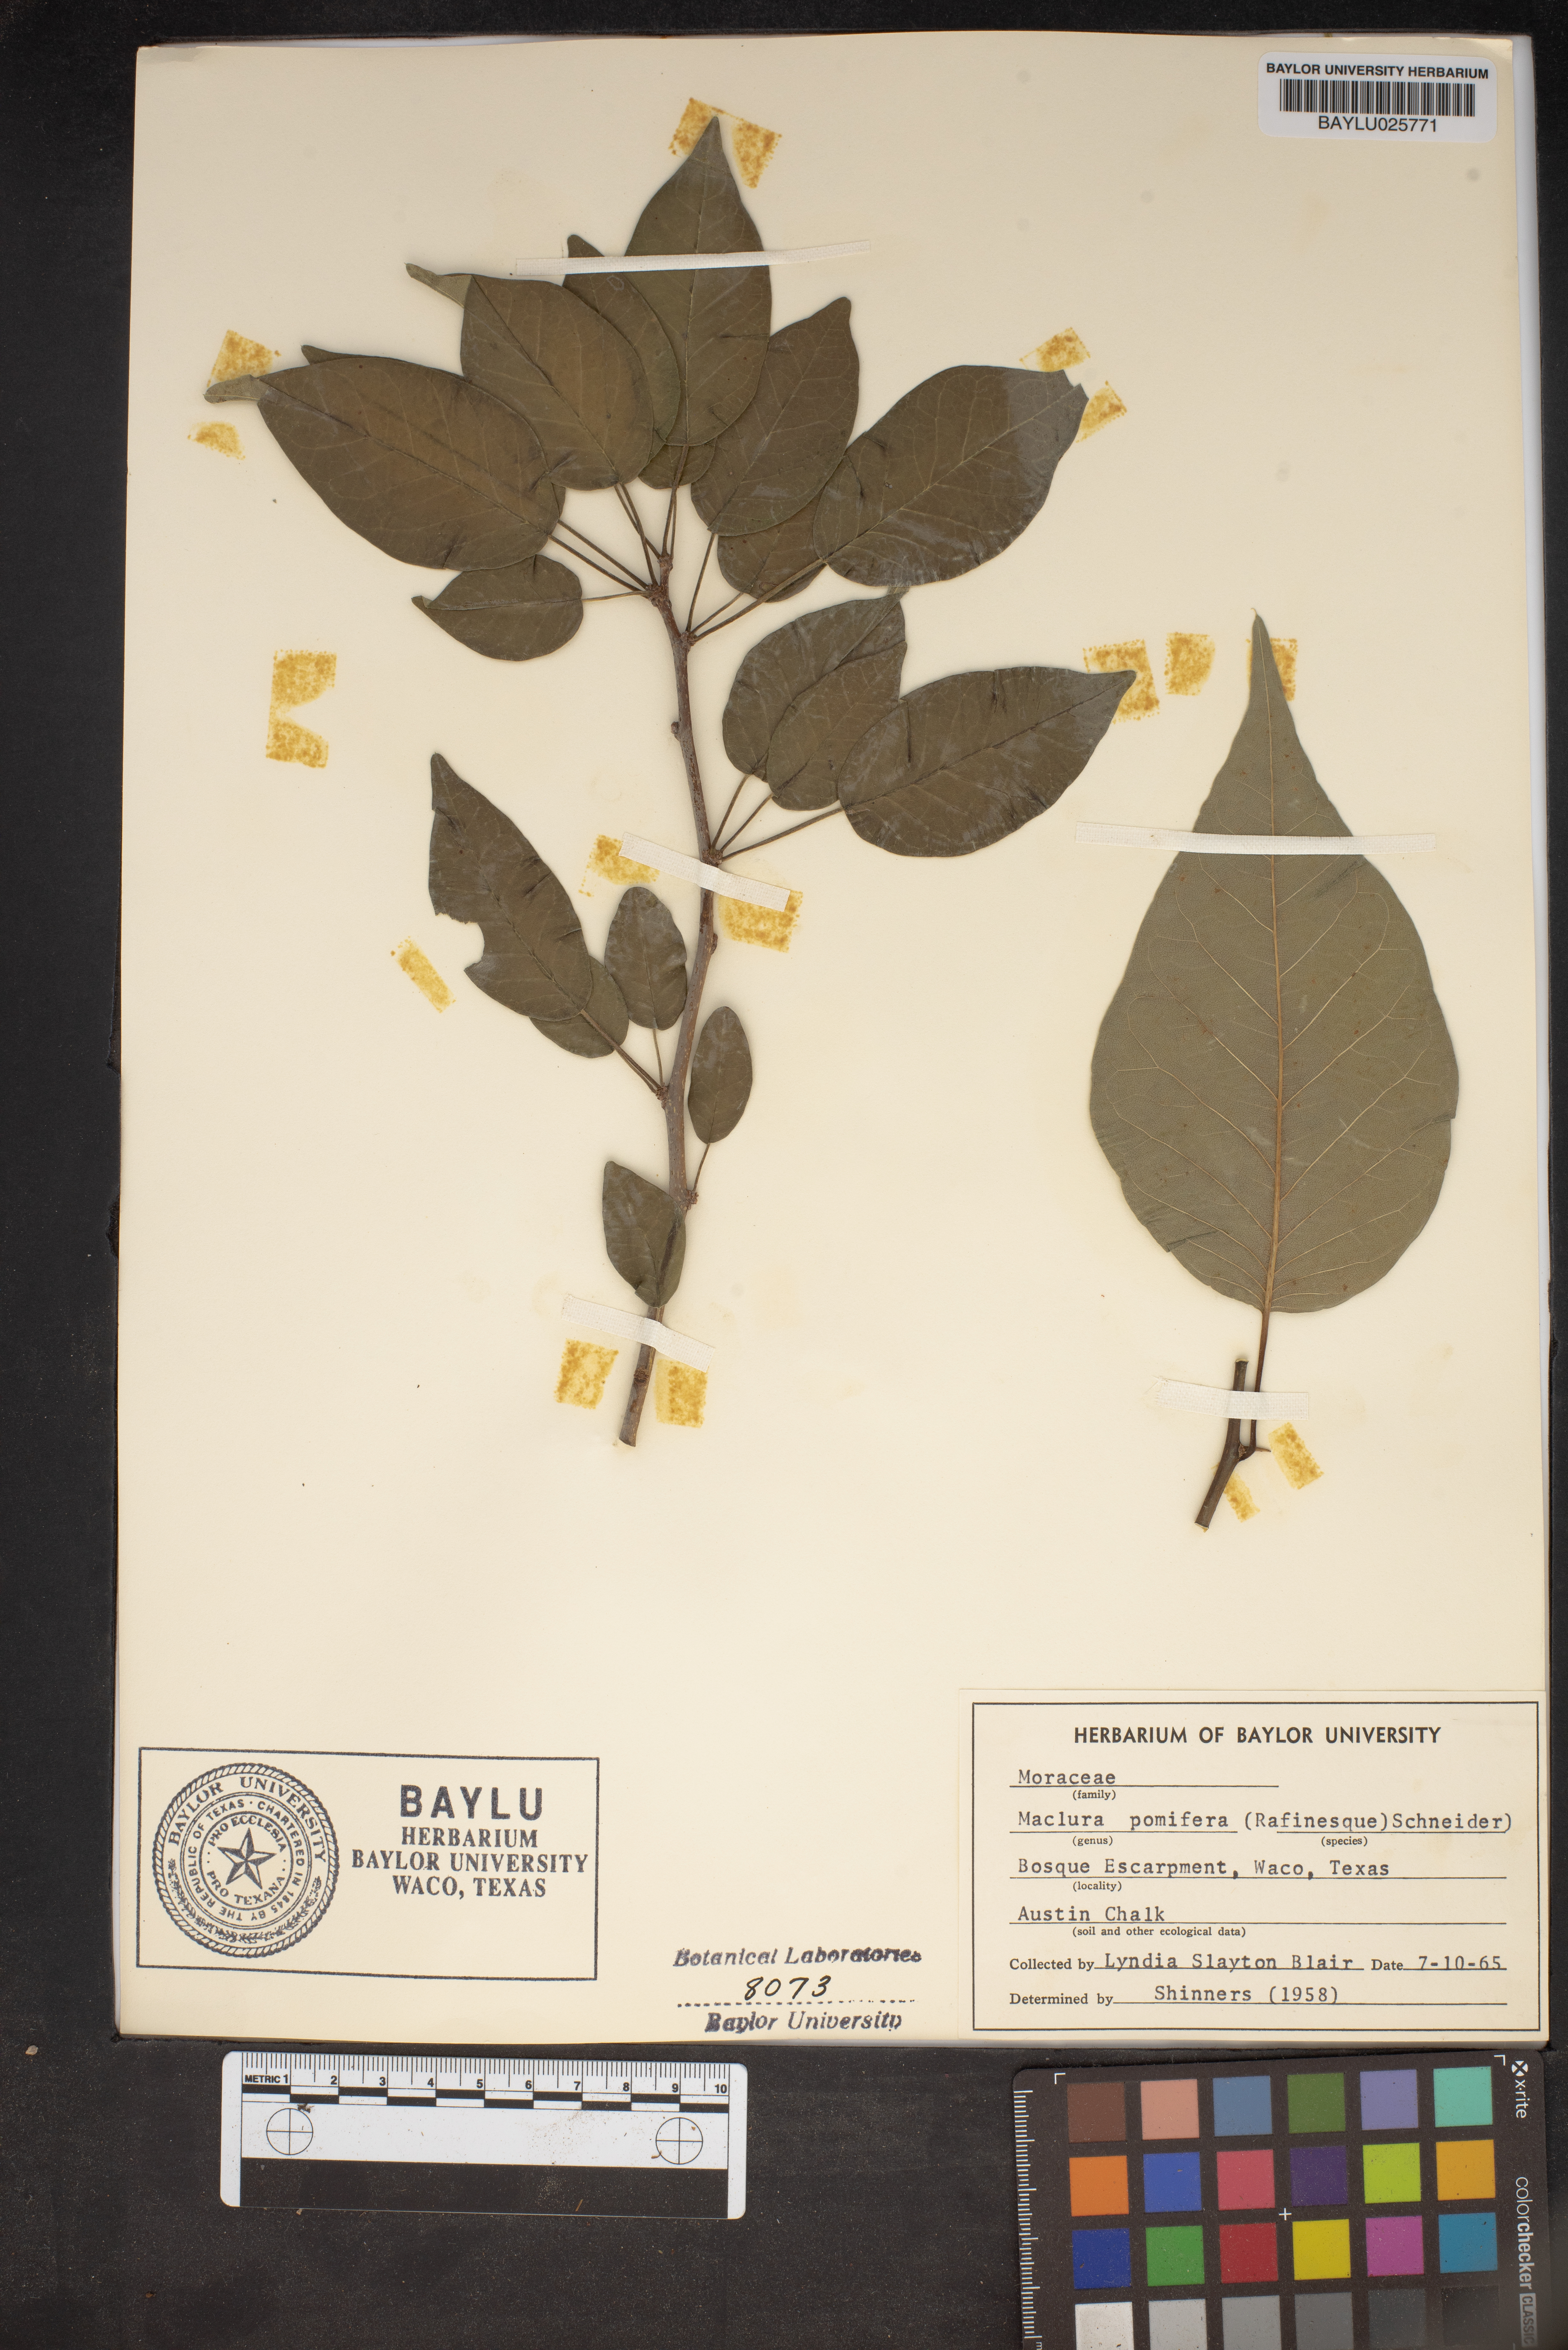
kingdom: Plantae
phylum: Tracheophyta
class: Magnoliopsida
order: Rosales
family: Moraceae
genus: Maclura
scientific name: Maclura pomifera
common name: Osage-orange
